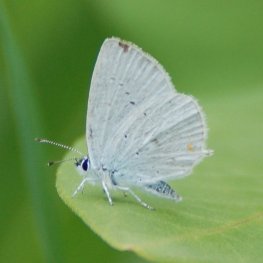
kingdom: Animalia
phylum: Arthropoda
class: Insecta
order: Lepidoptera
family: Lycaenidae
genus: Elkalyce
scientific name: Elkalyce amyntula
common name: Western Tailed-Blue
